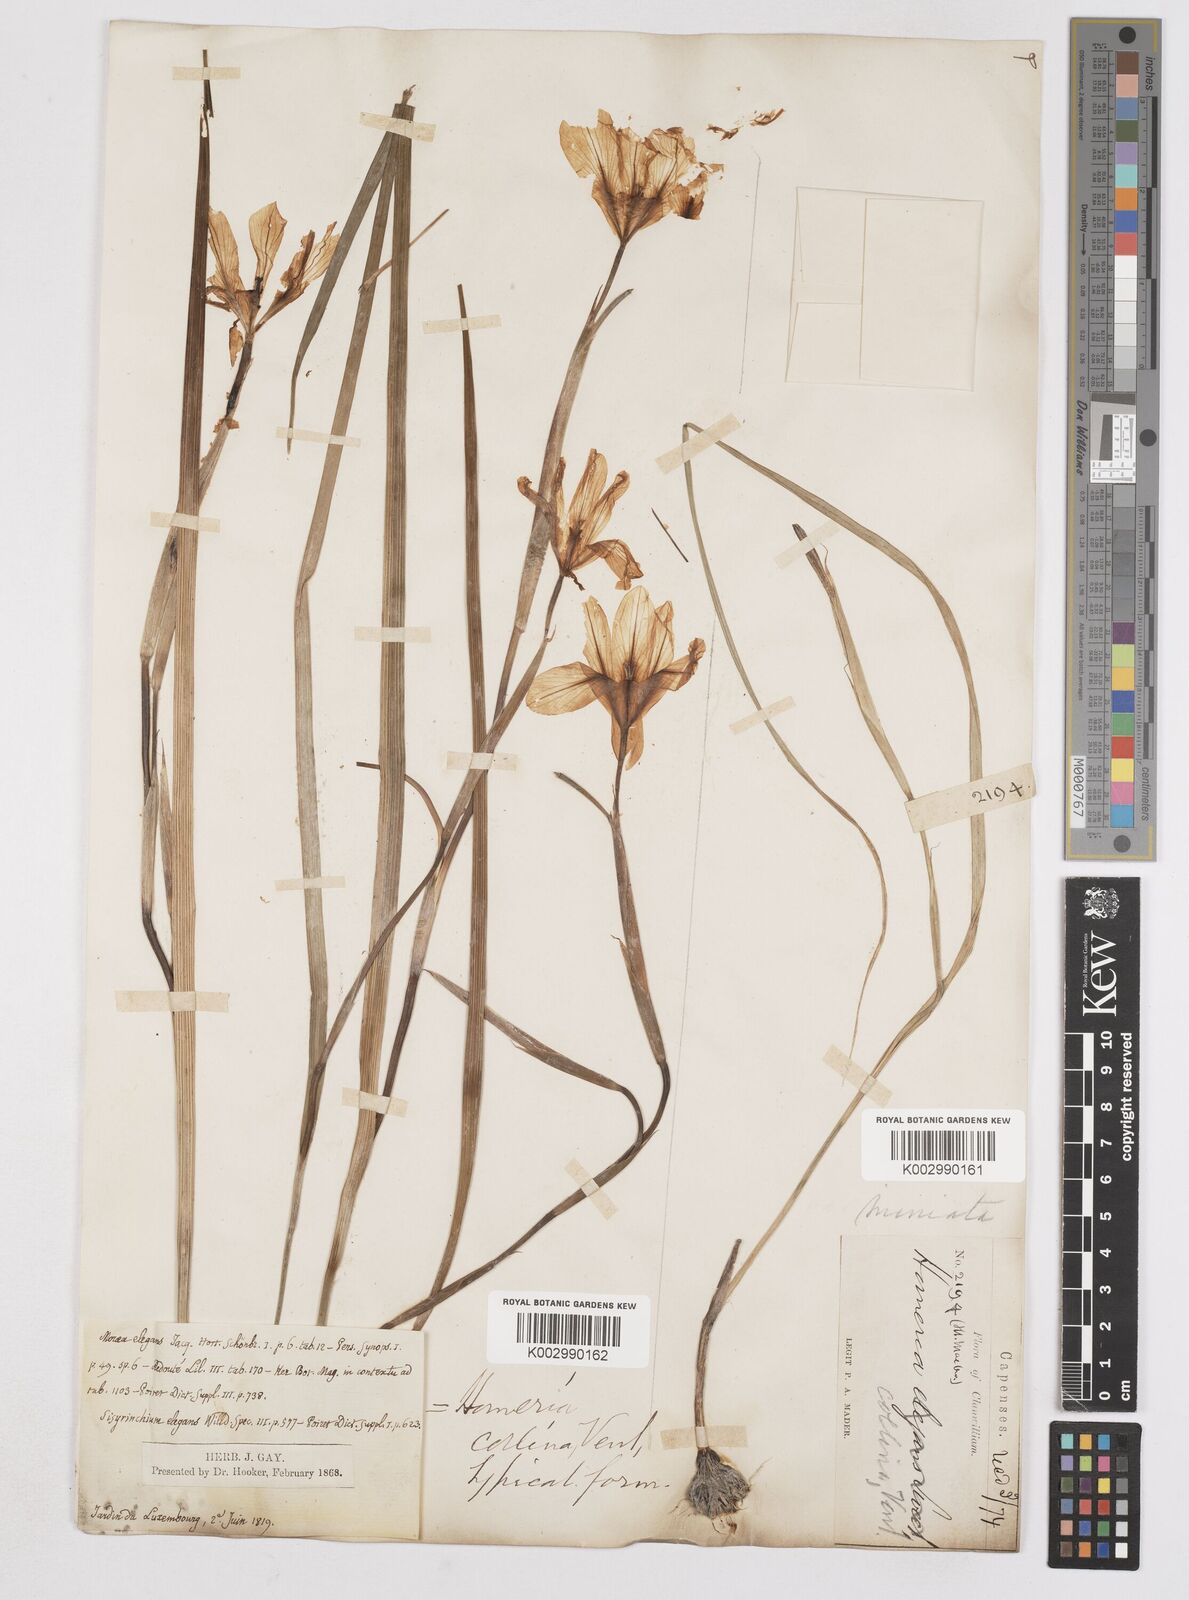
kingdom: Plantae
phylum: Tracheophyta
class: Liliopsida
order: Asparagales
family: Iridaceae
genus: Moraea
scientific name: Moraea collina
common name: Cape-tulip
